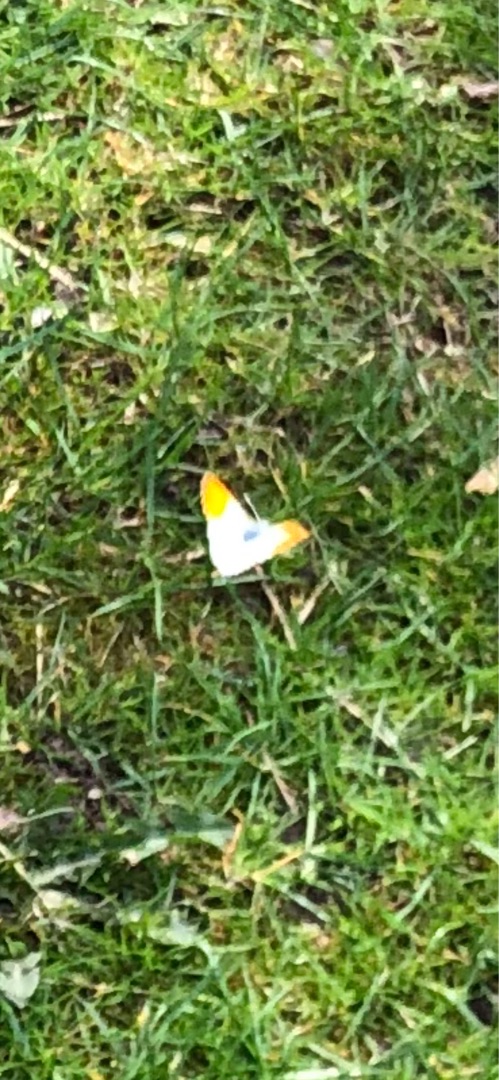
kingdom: Animalia
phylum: Arthropoda
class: Insecta
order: Lepidoptera
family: Pieridae
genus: Anthocharis
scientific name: Anthocharis cardamines
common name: Aurora
